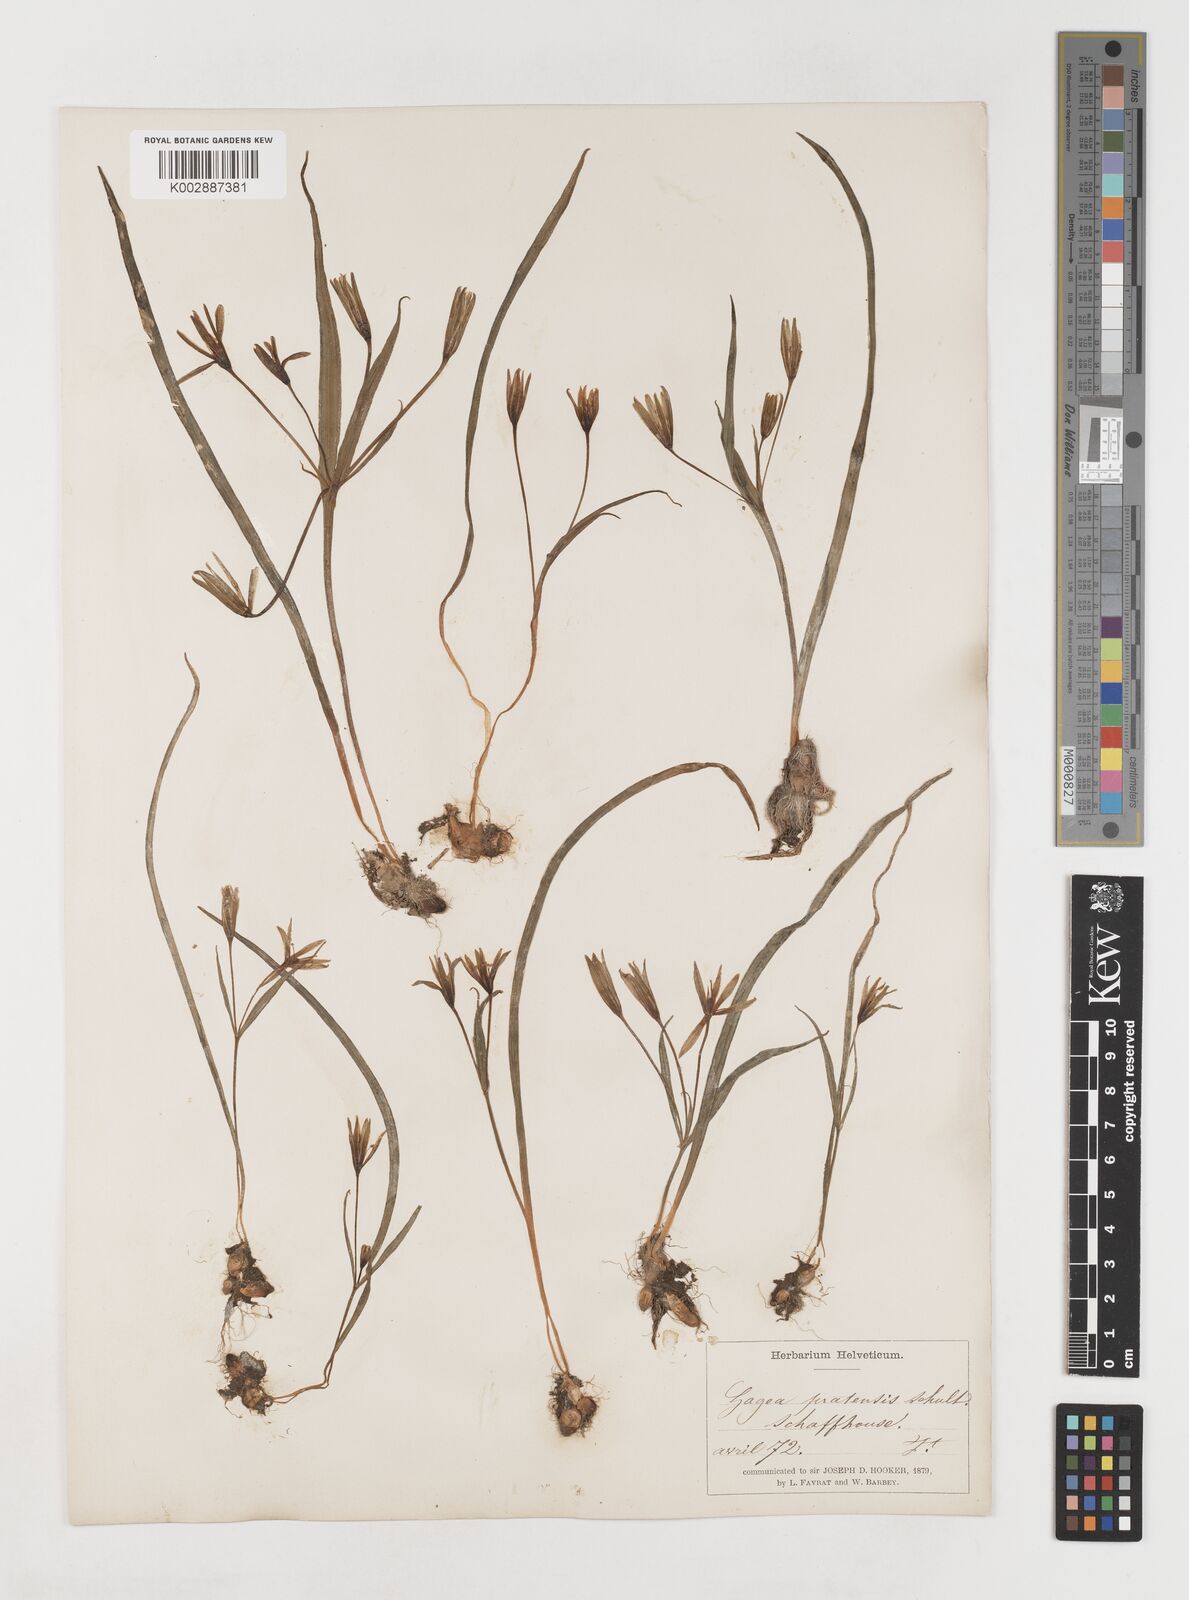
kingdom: Plantae
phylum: Tracheophyta
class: Liliopsida
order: Liliales
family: Liliaceae
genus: Gagea
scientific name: Gagea pratensis
